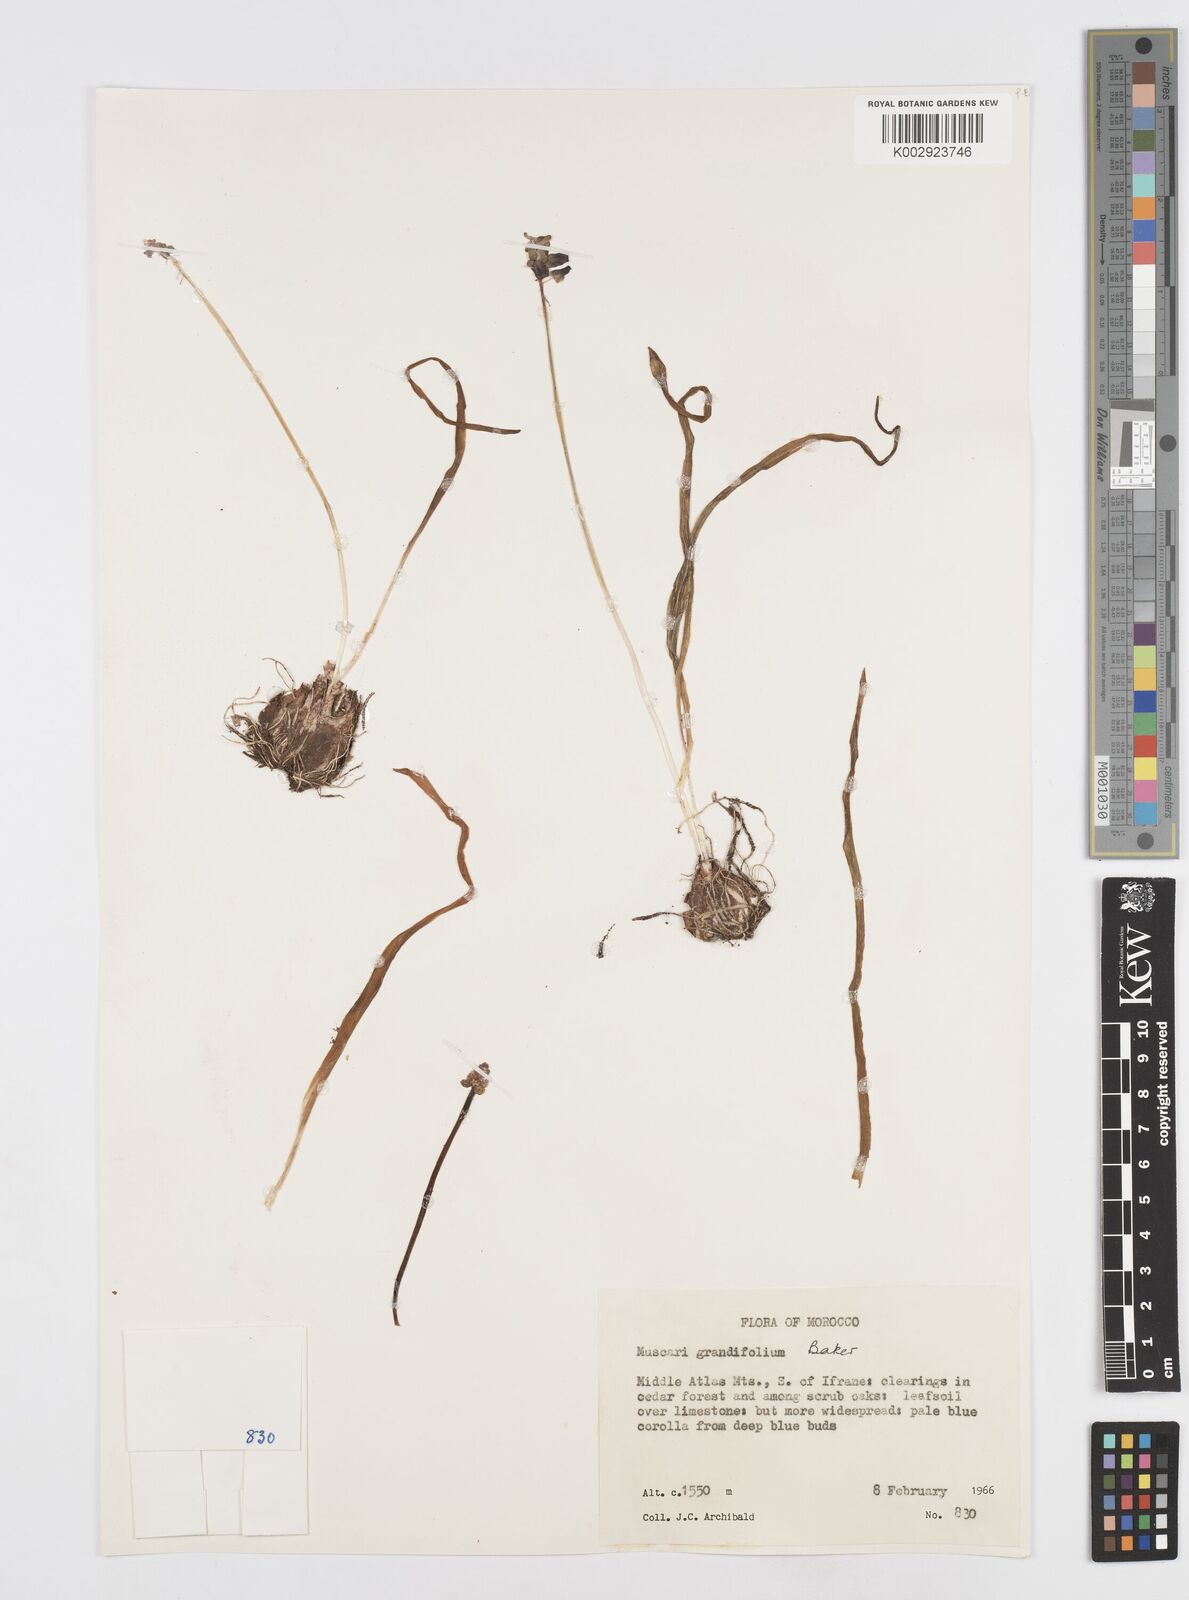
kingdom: Plantae
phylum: Tracheophyta
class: Liliopsida
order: Asparagales
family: Asparagaceae
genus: Muscari
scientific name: Muscari neglectum
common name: Grape-hyacinth
